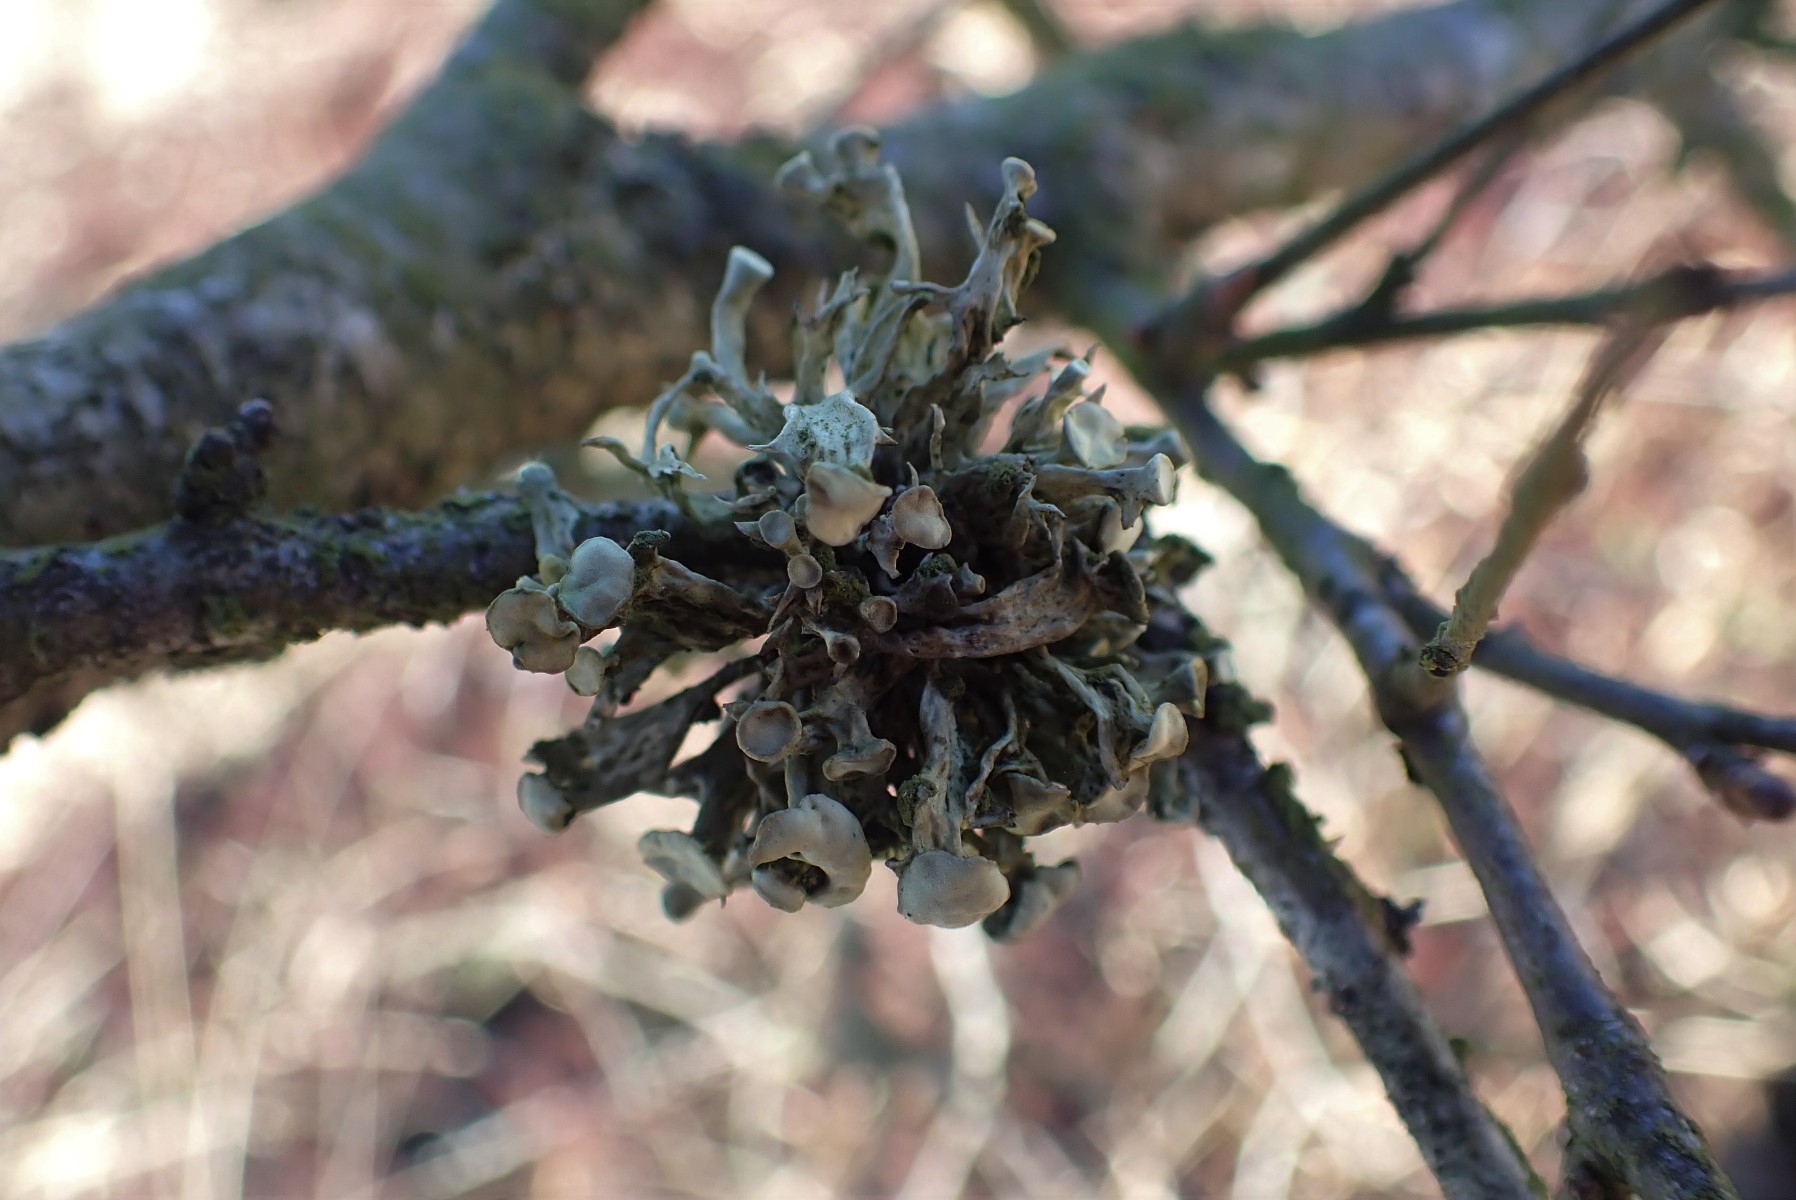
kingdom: Fungi
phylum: Ascomycota
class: Lecanoromycetes
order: Lecanorales
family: Ramalinaceae
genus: Ramalina
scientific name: Ramalina fastigiata
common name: tue-grenlav
